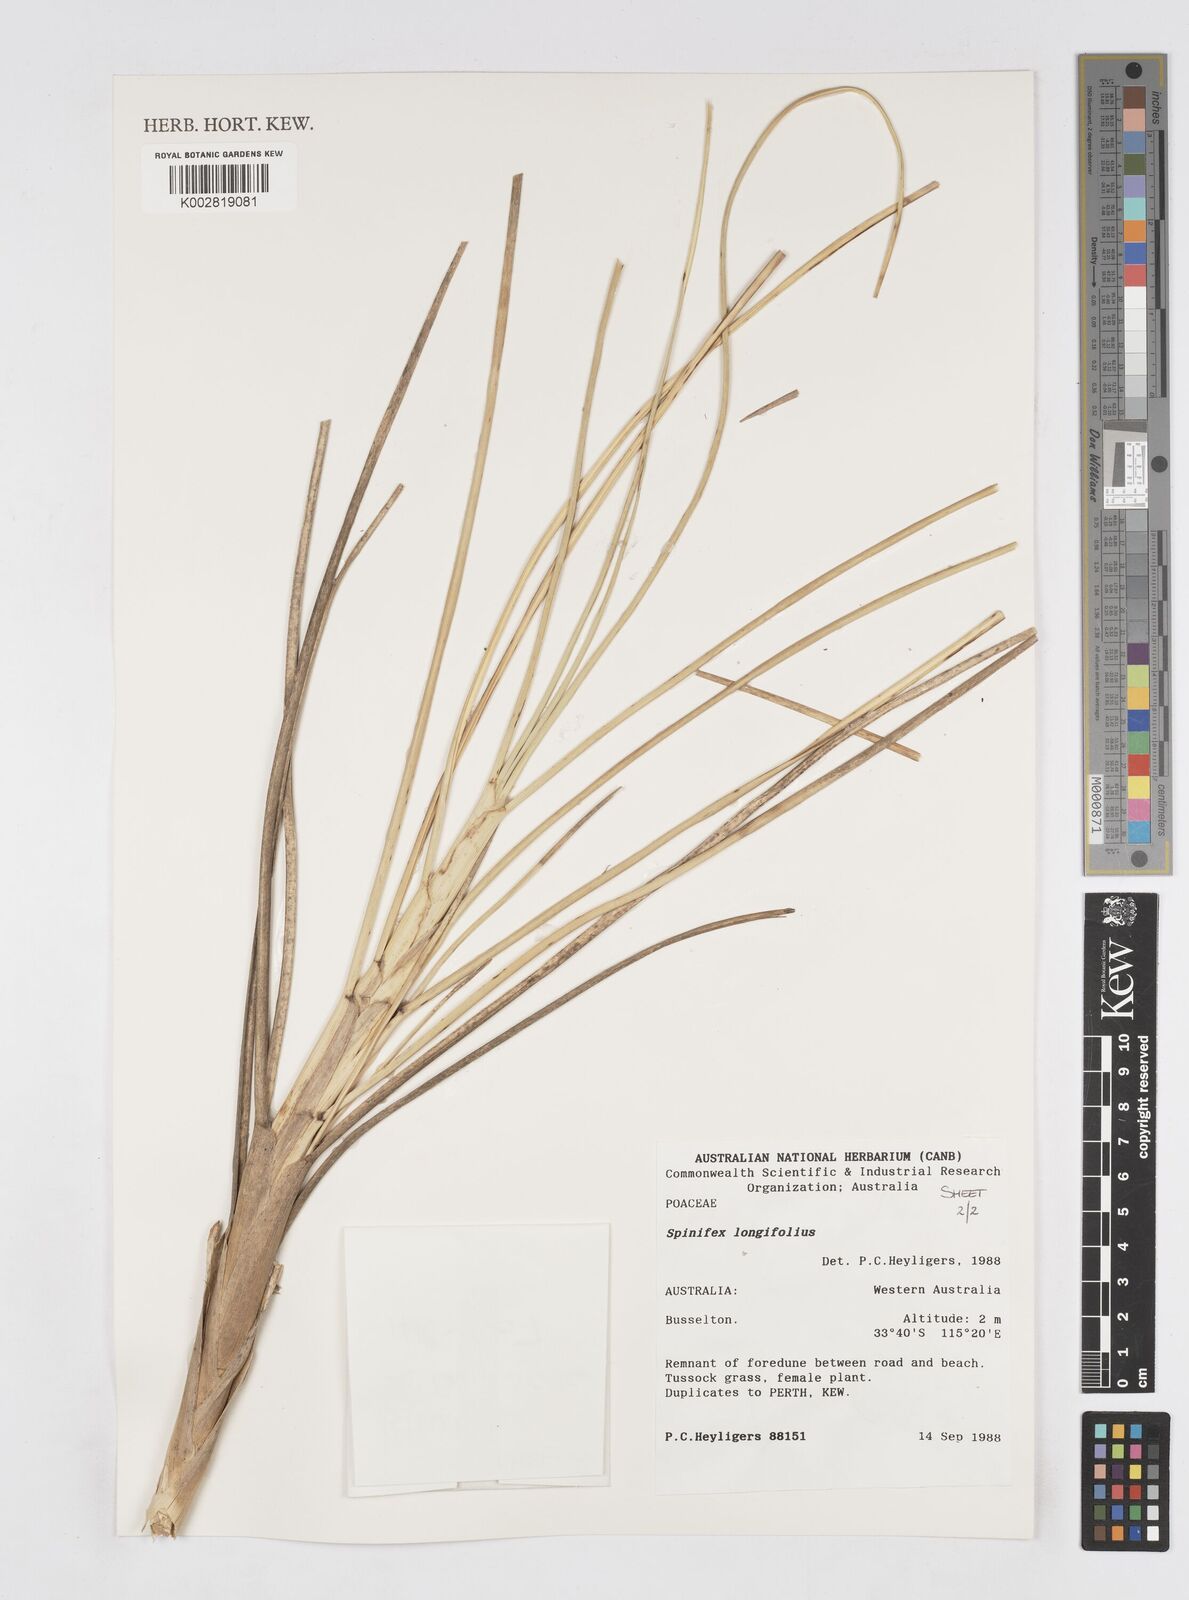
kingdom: Plantae
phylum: Tracheophyta
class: Liliopsida
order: Poales
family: Poaceae
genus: Spinifex
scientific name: Spinifex longifolius
